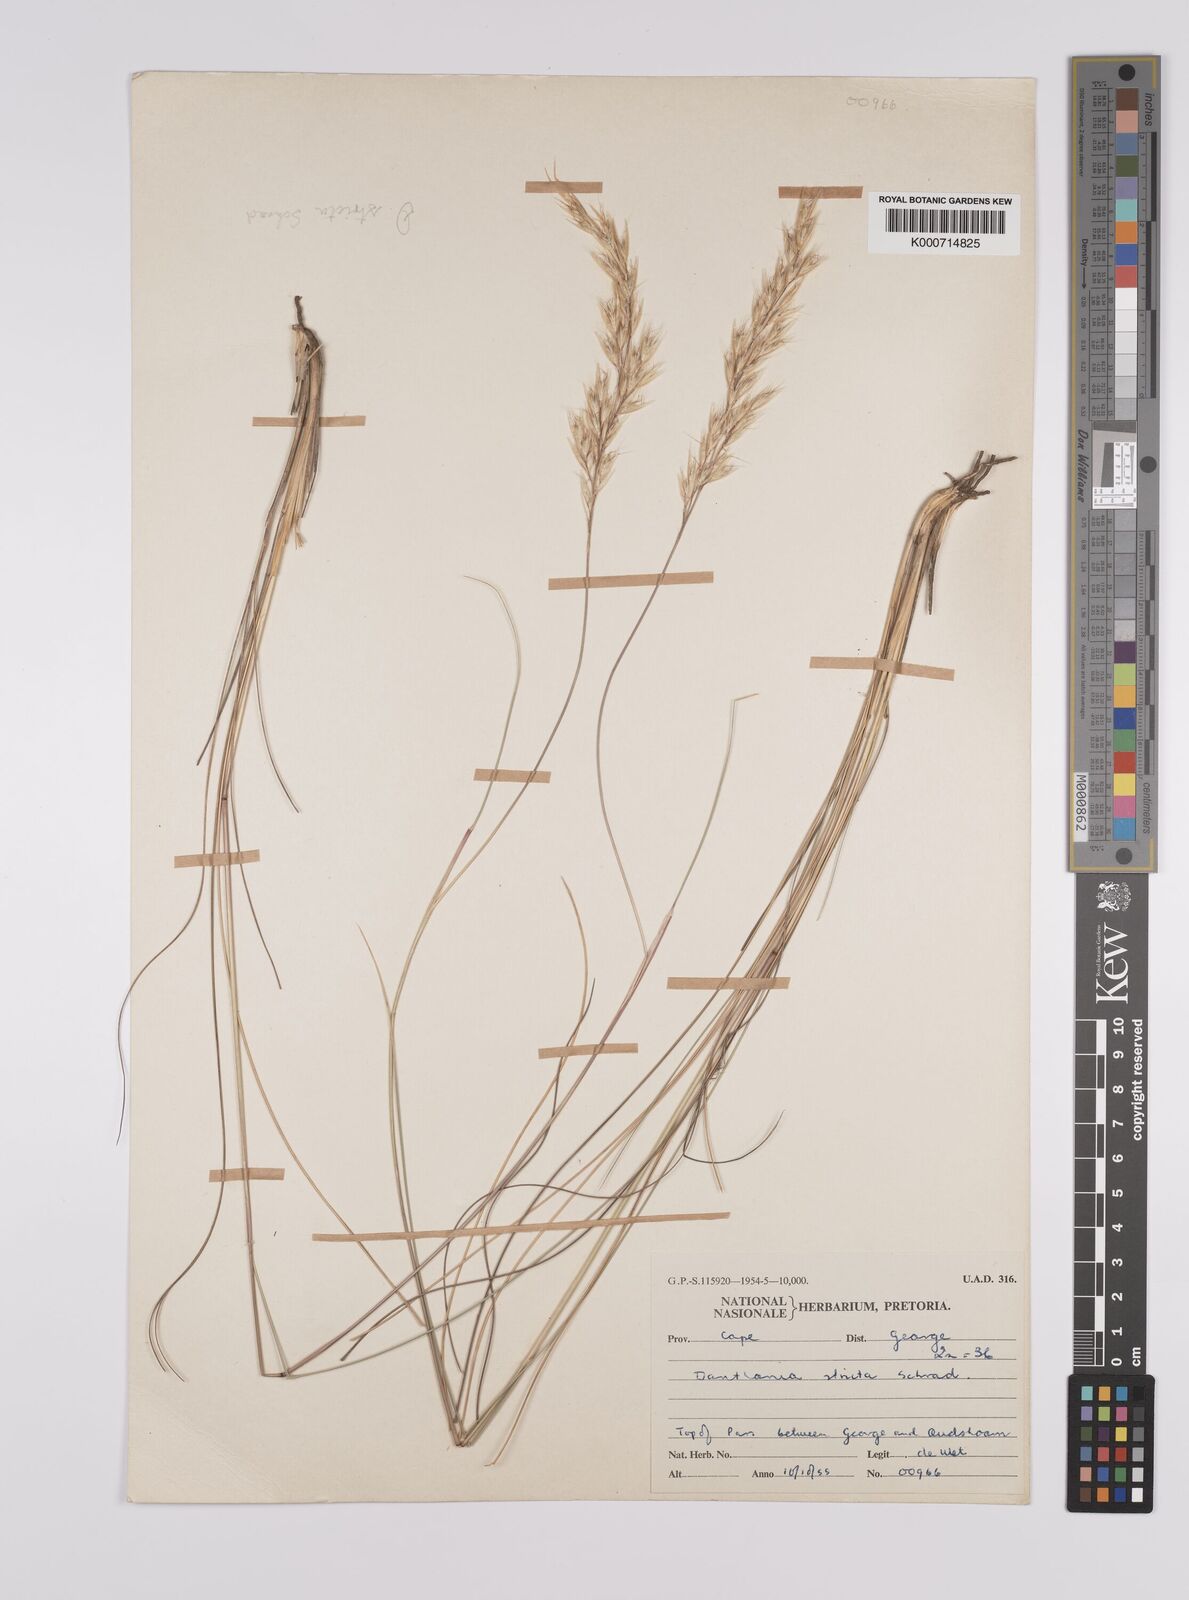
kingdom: Plantae
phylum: Tracheophyta
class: Liliopsida
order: Poales
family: Poaceae
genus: Rytidosperma
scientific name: Rytidosperma
